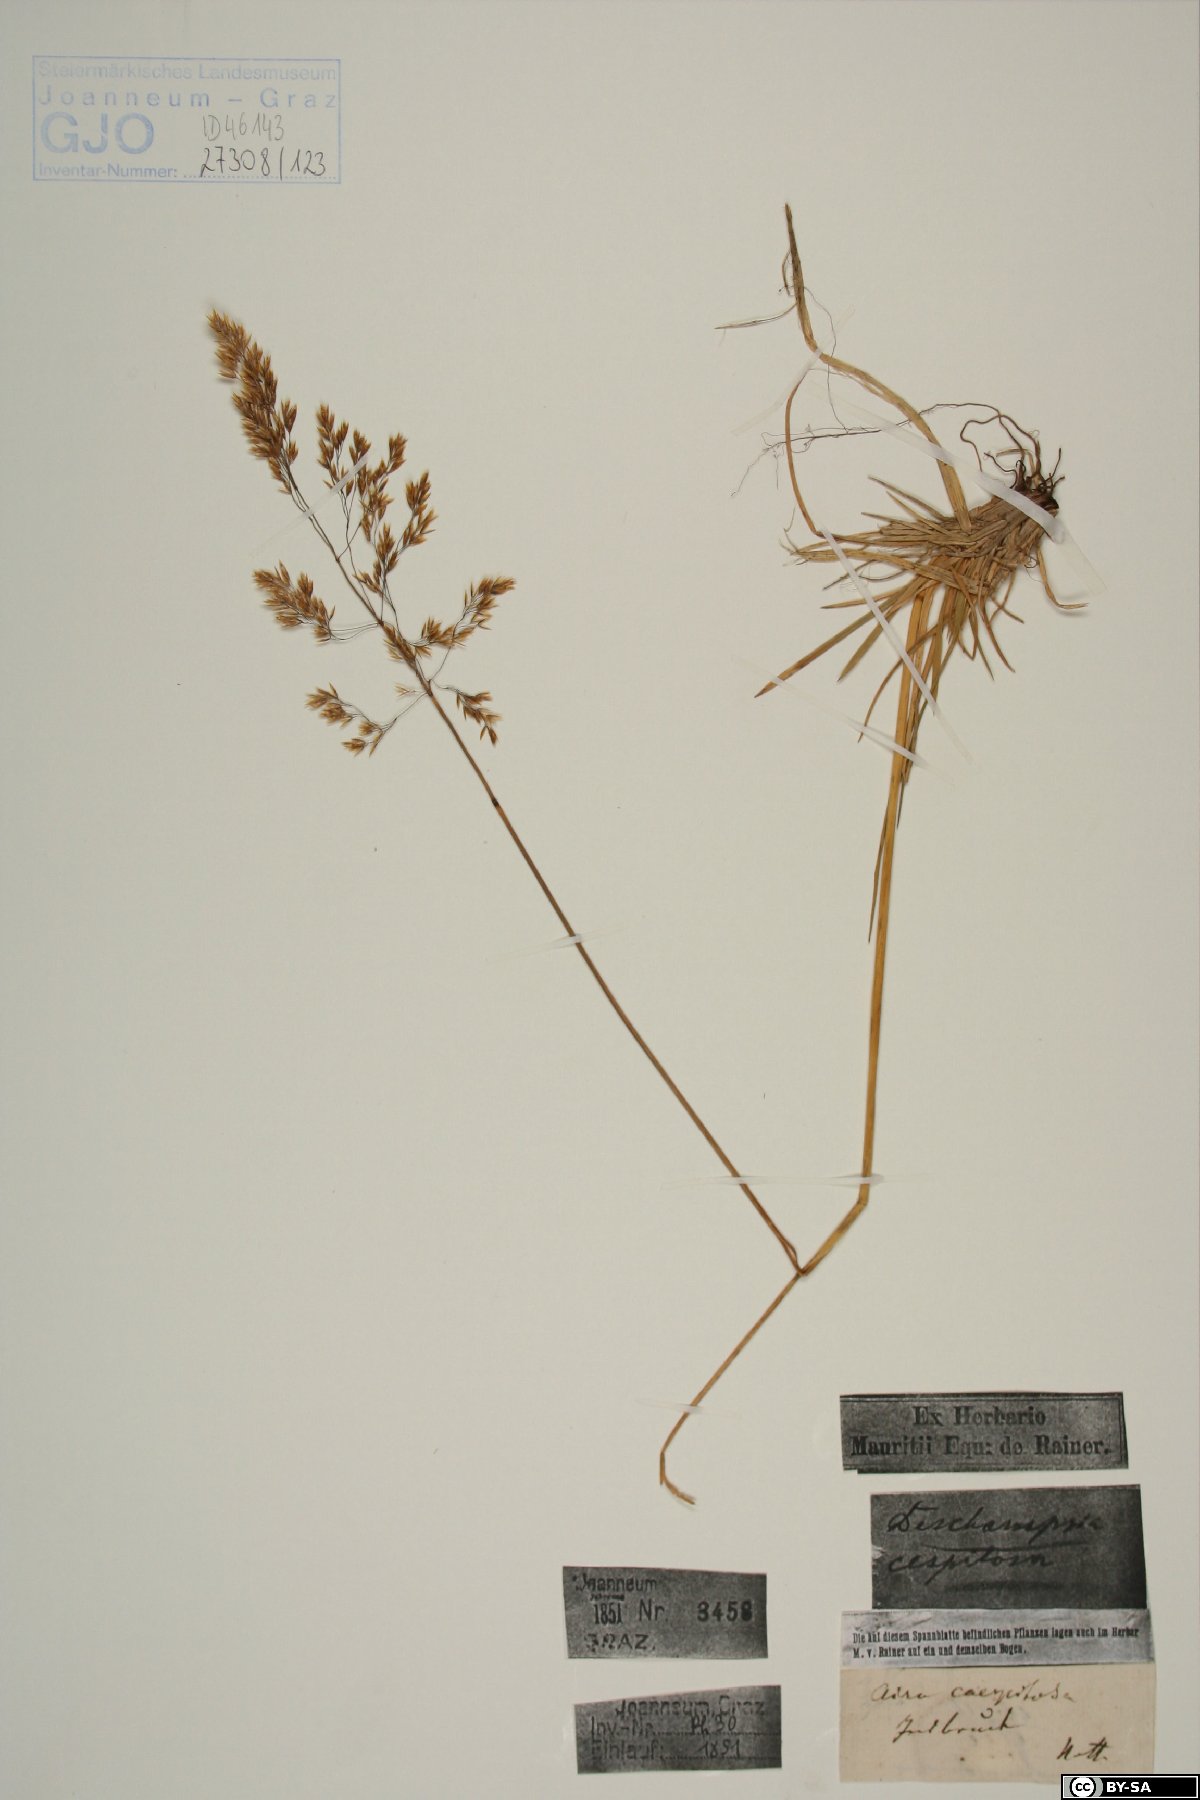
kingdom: Plantae
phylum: Tracheophyta
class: Liliopsida
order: Poales
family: Poaceae
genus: Deschampsia
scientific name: Deschampsia cespitosa
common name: Tufted hair-grass
